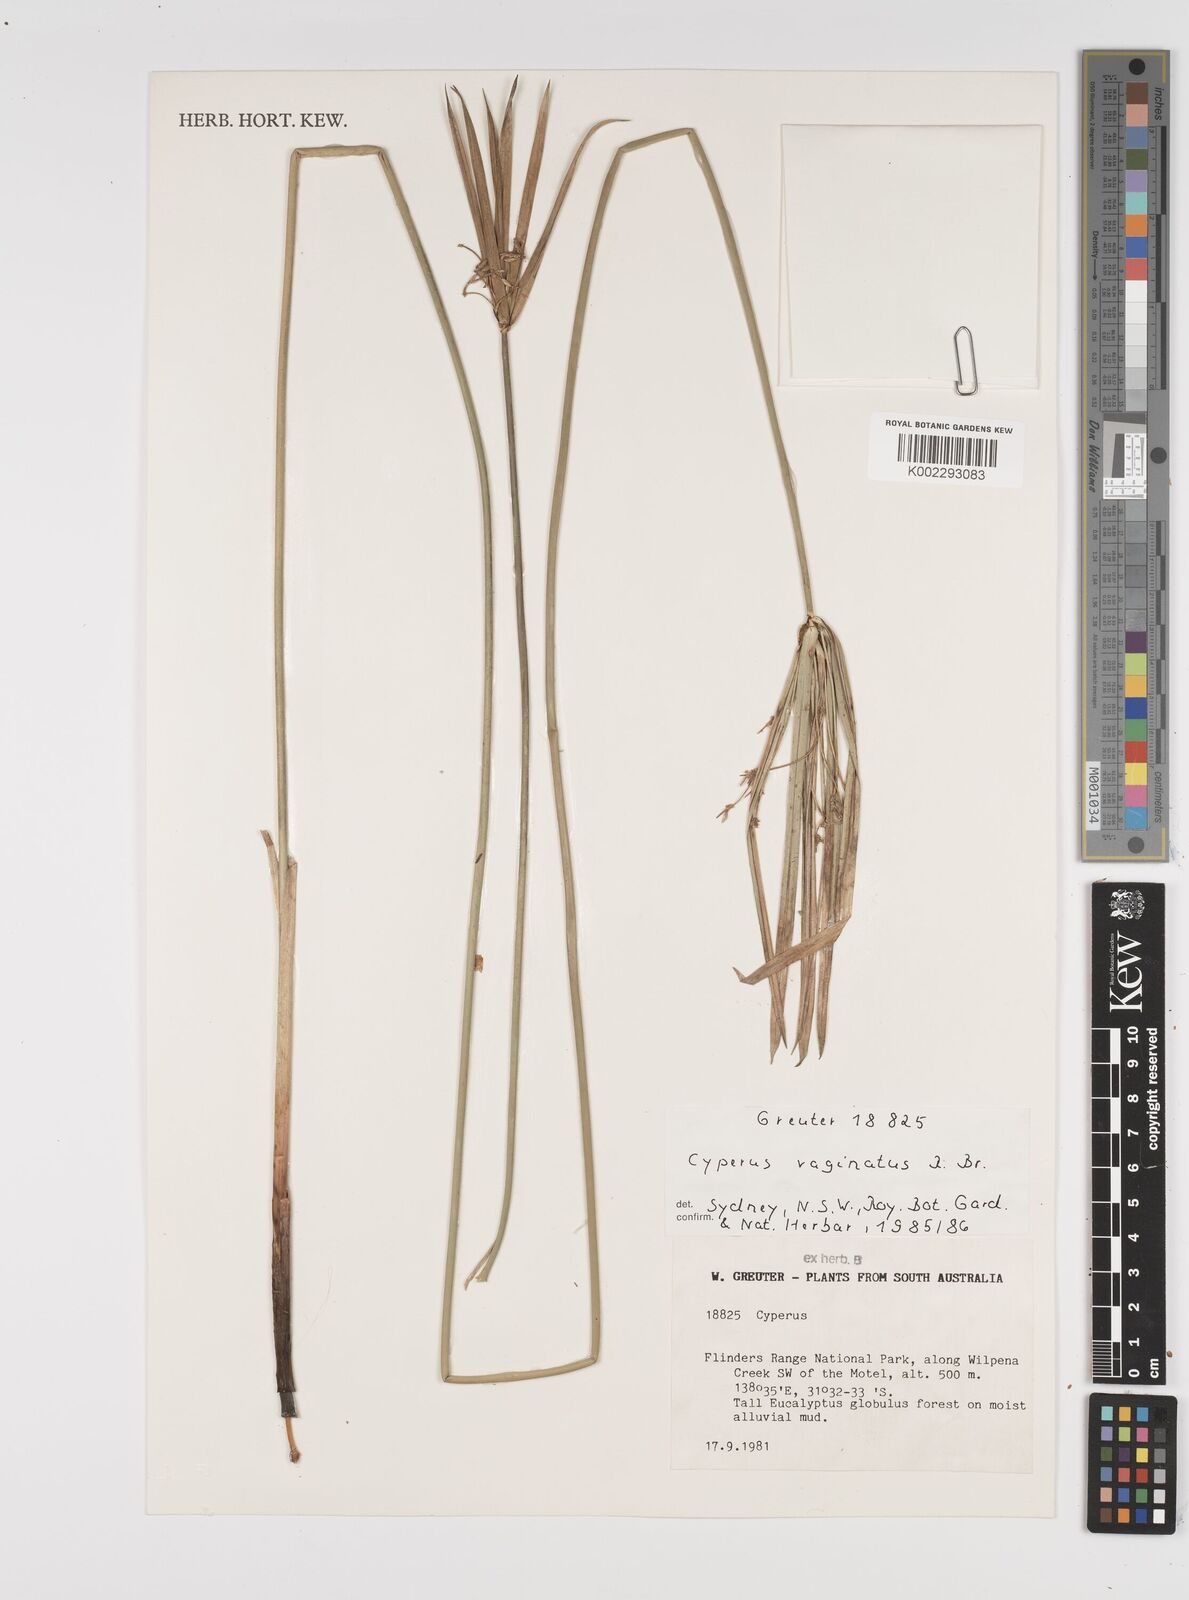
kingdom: Plantae
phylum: Tracheophyta
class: Liliopsida
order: Poales
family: Cyperaceae
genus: Cyperus
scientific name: Cyperus vaginatus
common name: Stiff-leaved flat-sedge
